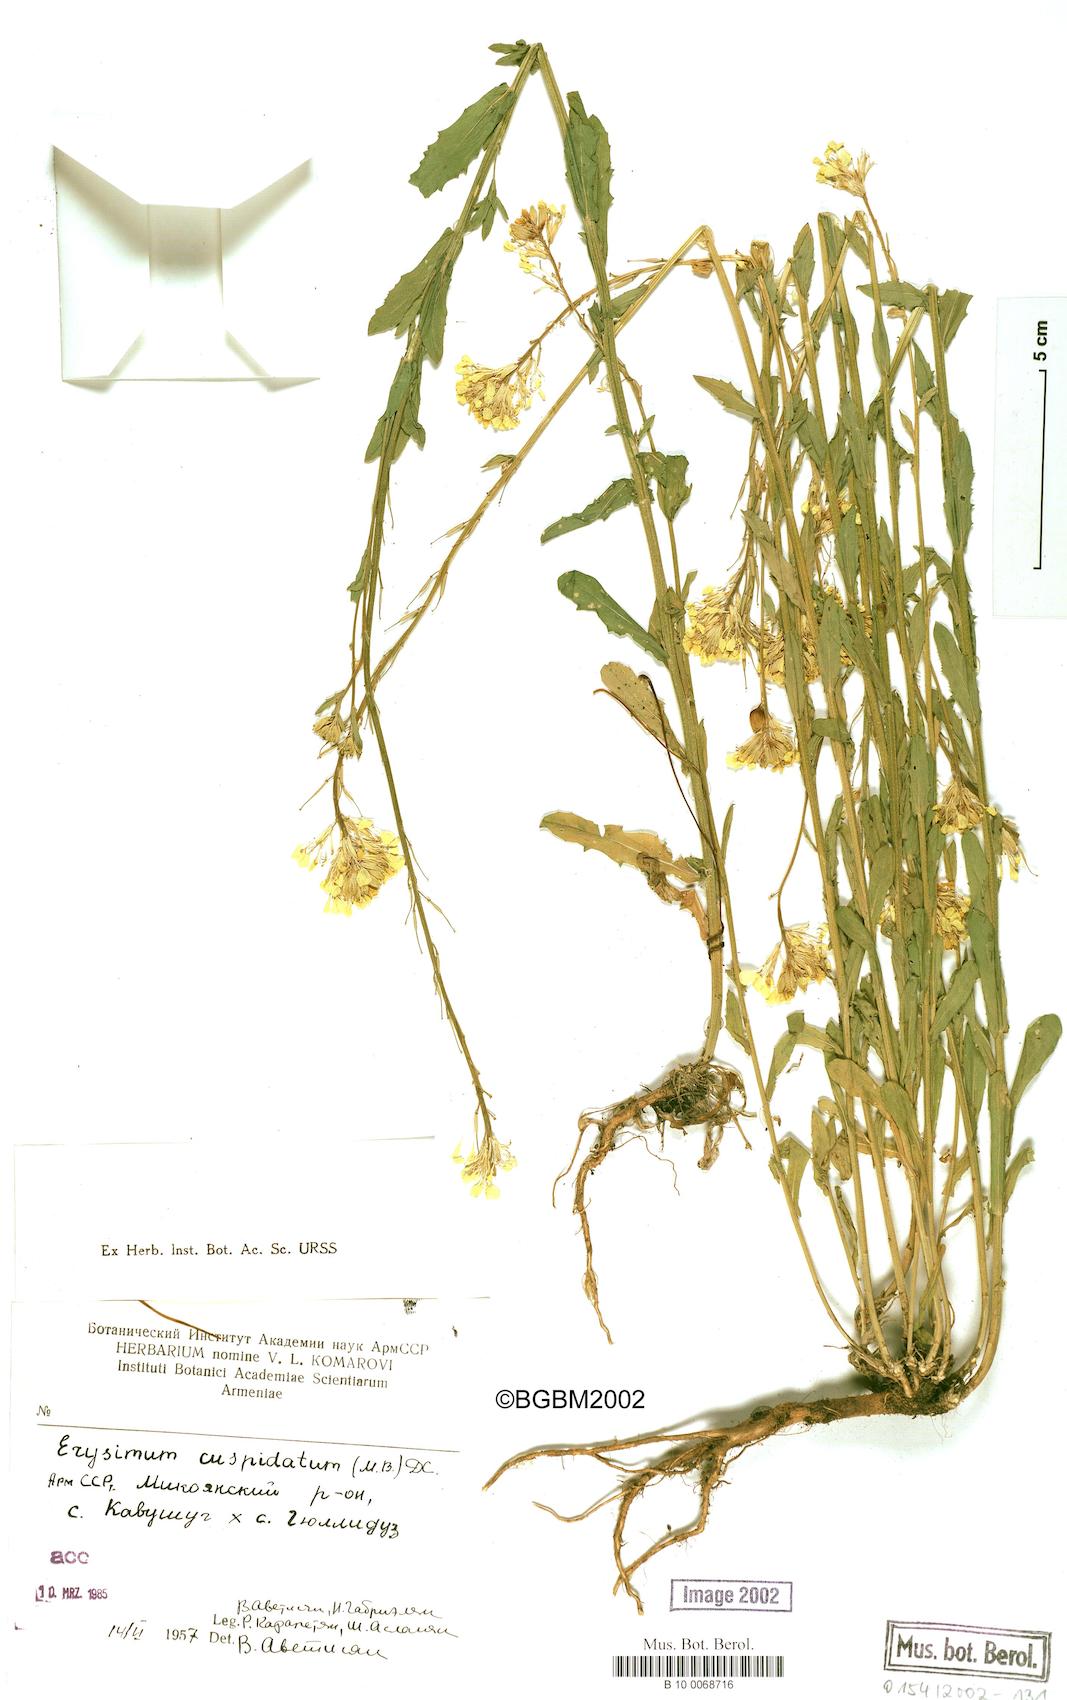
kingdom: Plantae
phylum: Tracheophyta
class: Magnoliopsida
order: Brassicales
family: Brassicaceae
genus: Erysimum
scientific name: Erysimum cuspidatum
